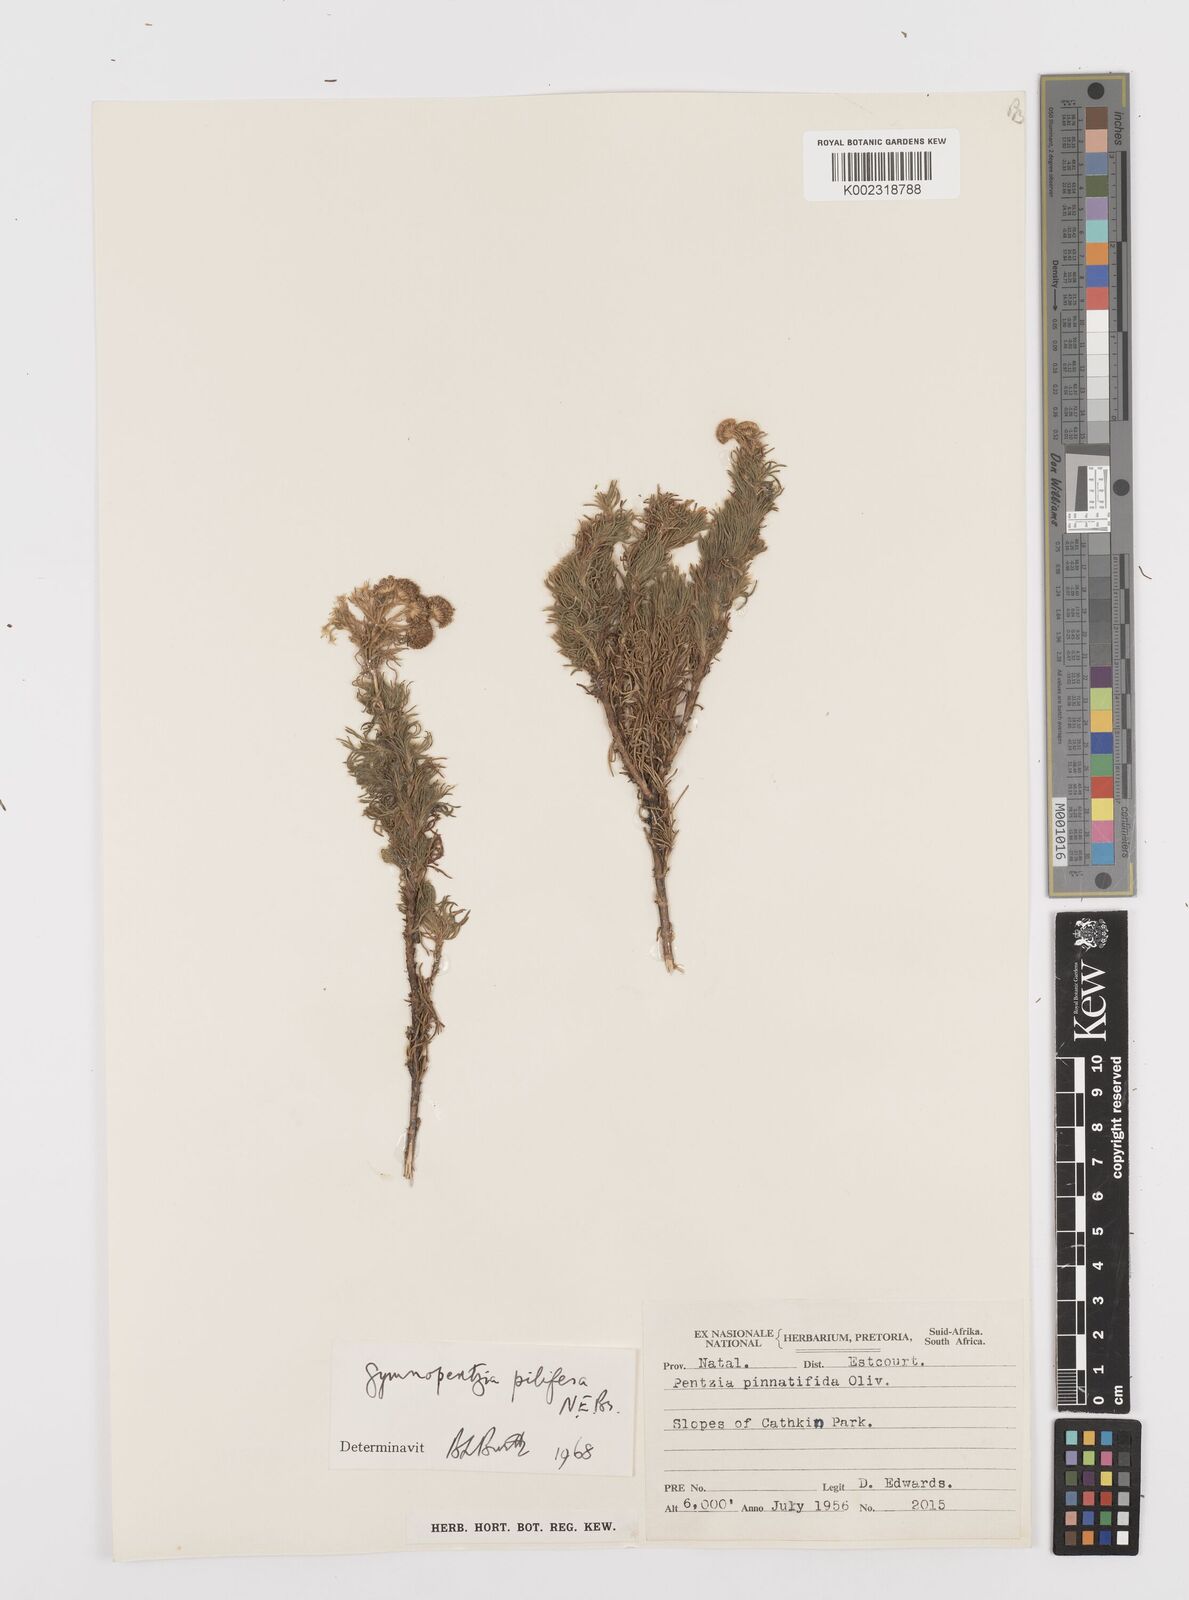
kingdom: Plantae
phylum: Tracheophyta
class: Magnoliopsida
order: Asterales
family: Asteraceae
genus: Gymnopentzia
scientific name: Gymnopentzia bifurcata
